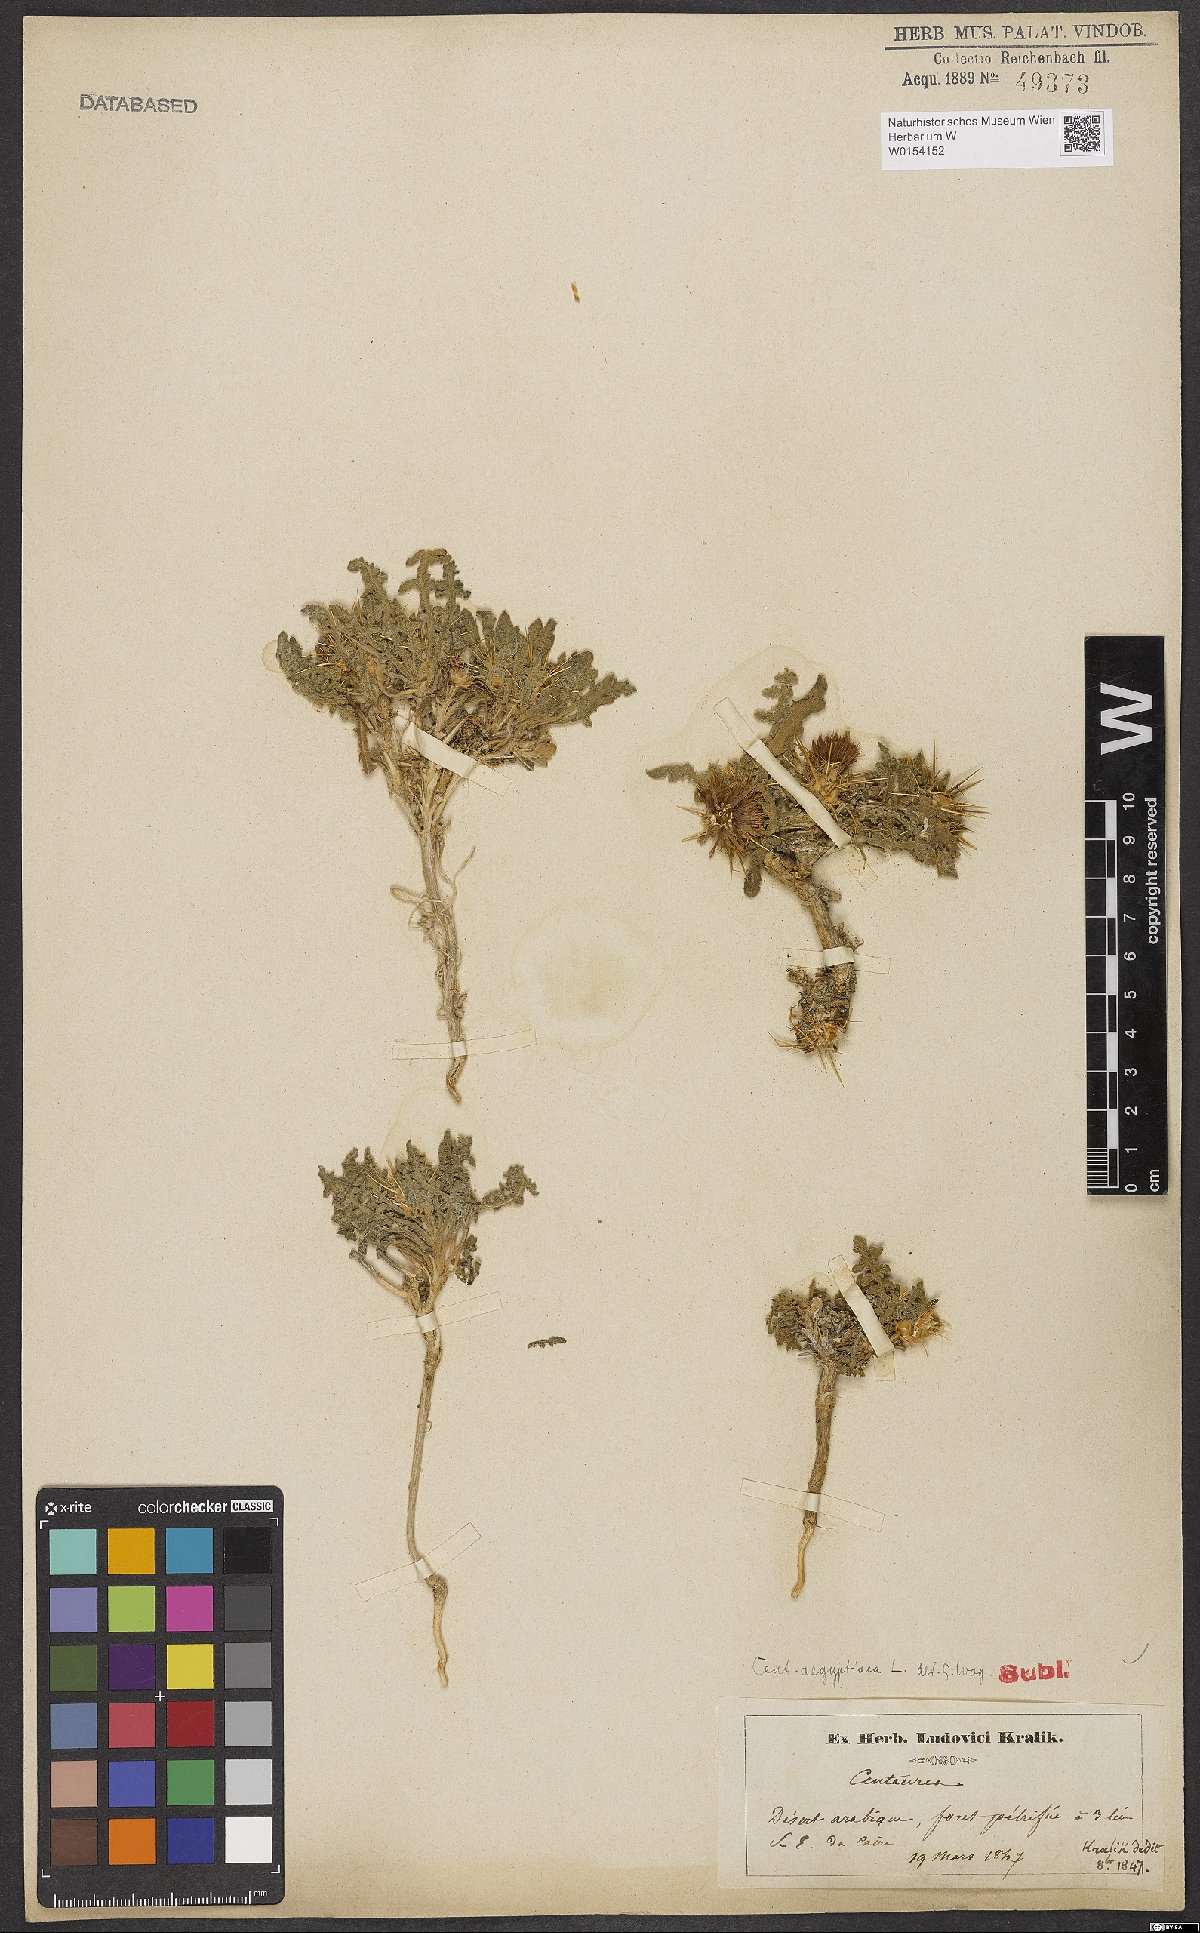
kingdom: Plantae
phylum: Tracheophyta
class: Magnoliopsida
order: Asterales
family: Asteraceae
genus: Centaurea
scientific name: Centaurea aegyptiaca
